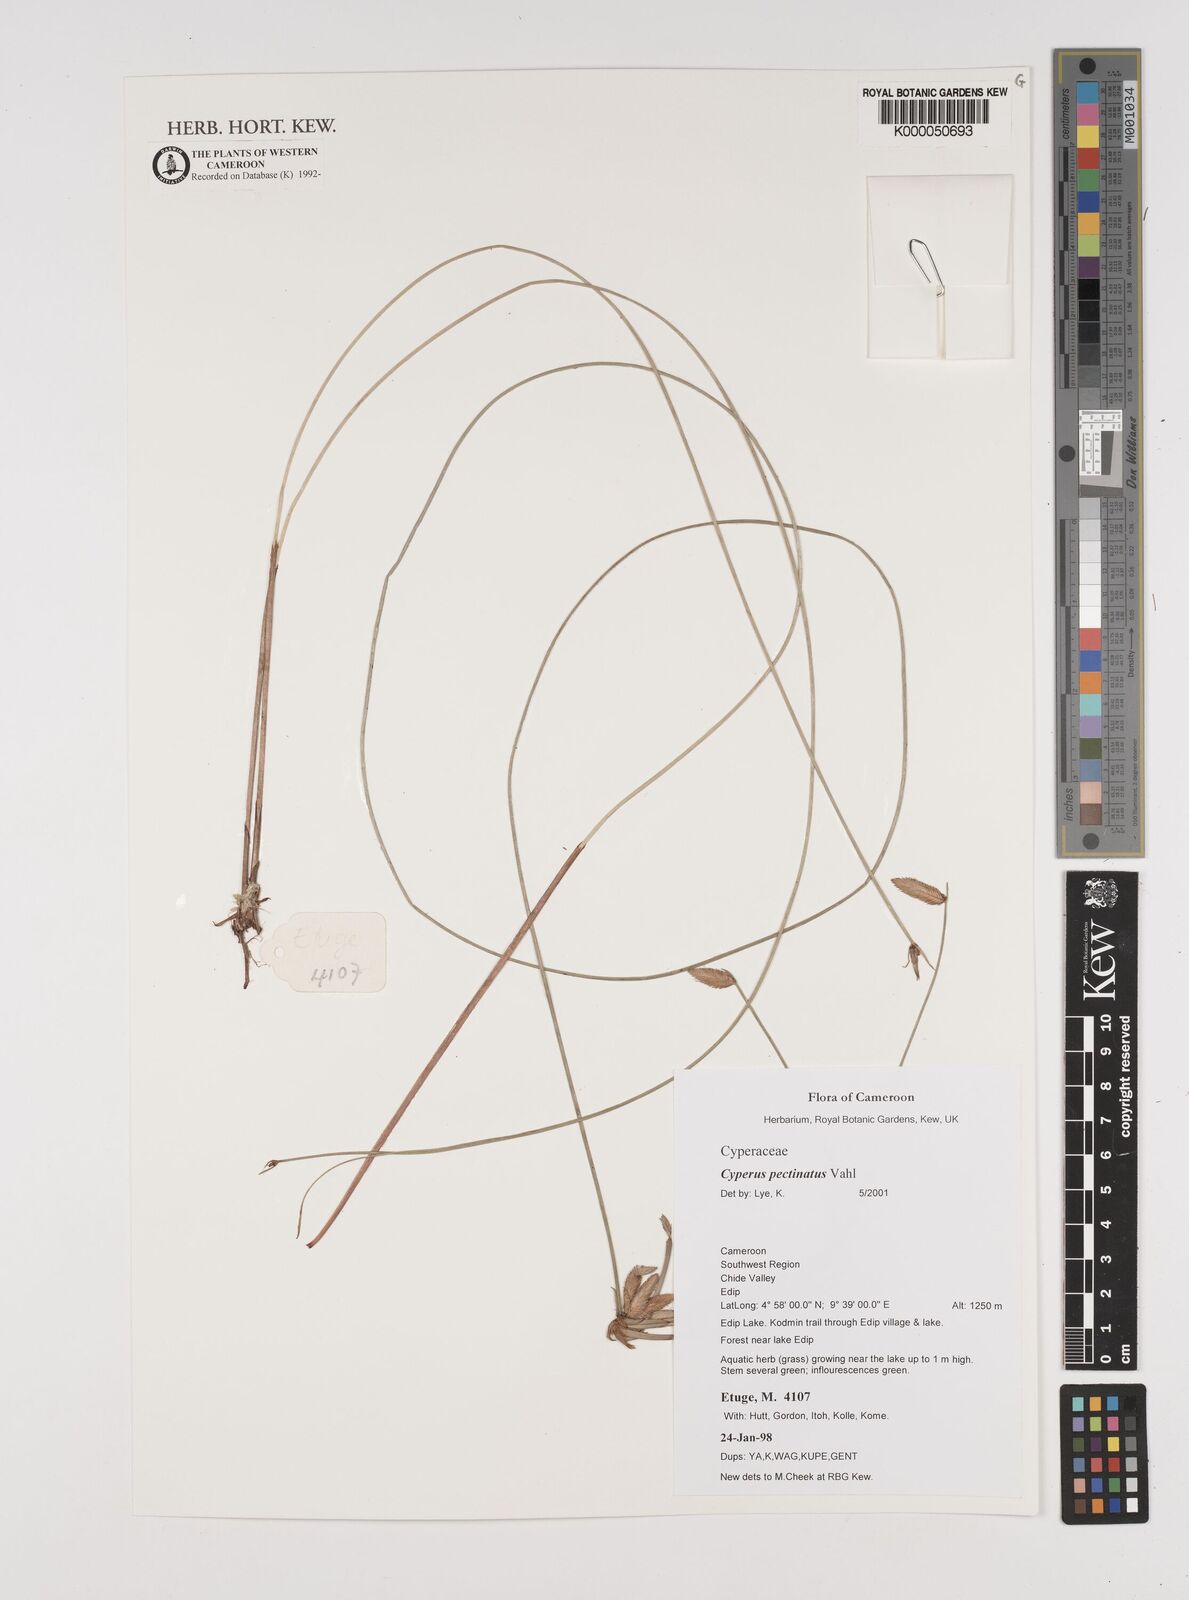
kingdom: Plantae
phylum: Tracheophyta
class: Liliopsida
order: Poales
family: Cyperaceae
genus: Cyperus
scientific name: Cyperus pectinatus
